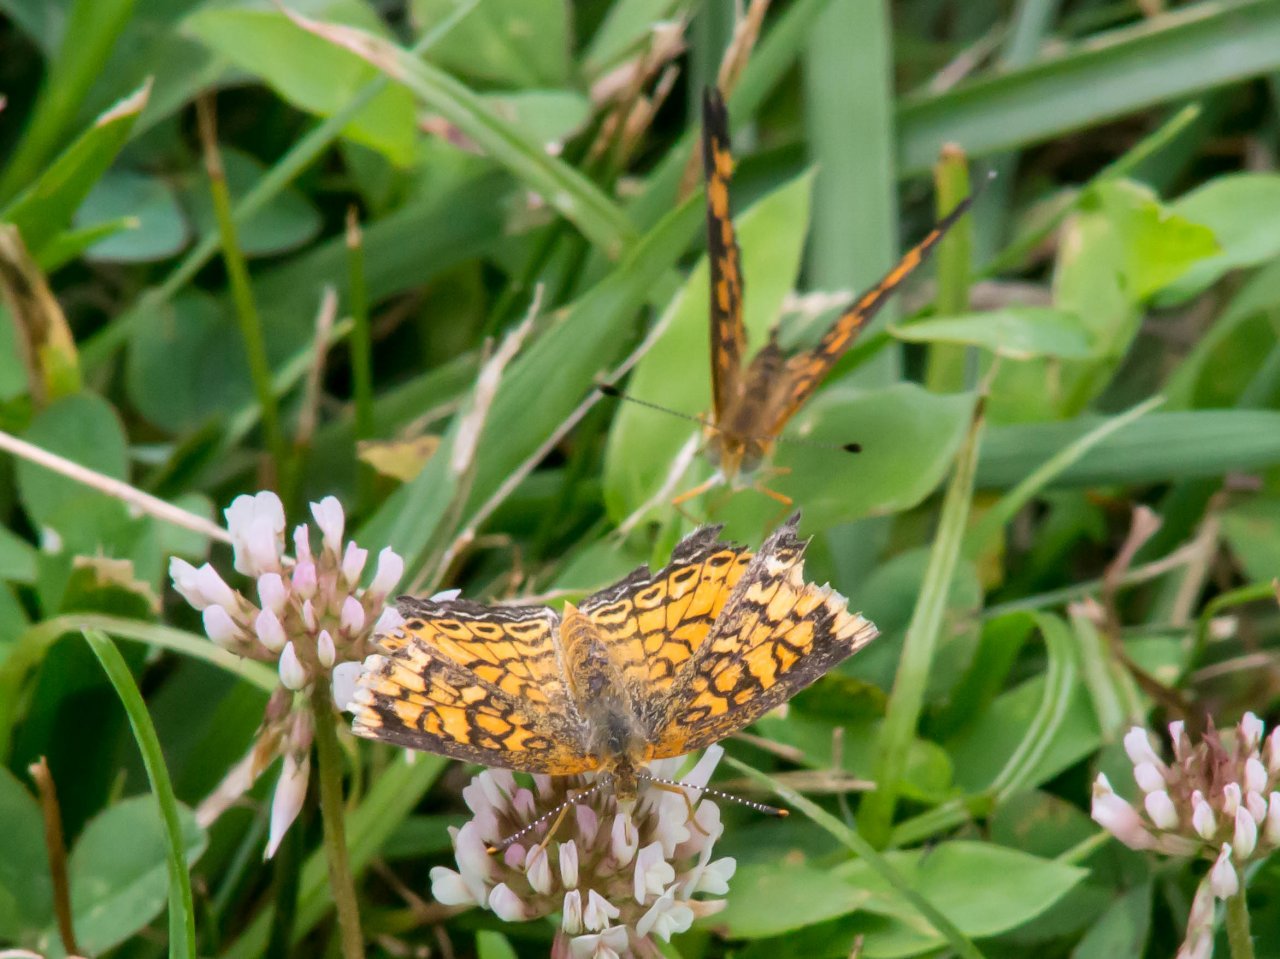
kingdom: Animalia
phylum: Arthropoda
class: Insecta
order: Lepidoptera
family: Nymphalidae
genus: Phyciodes
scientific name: Phyciodes tharos
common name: Pearl Crescent
